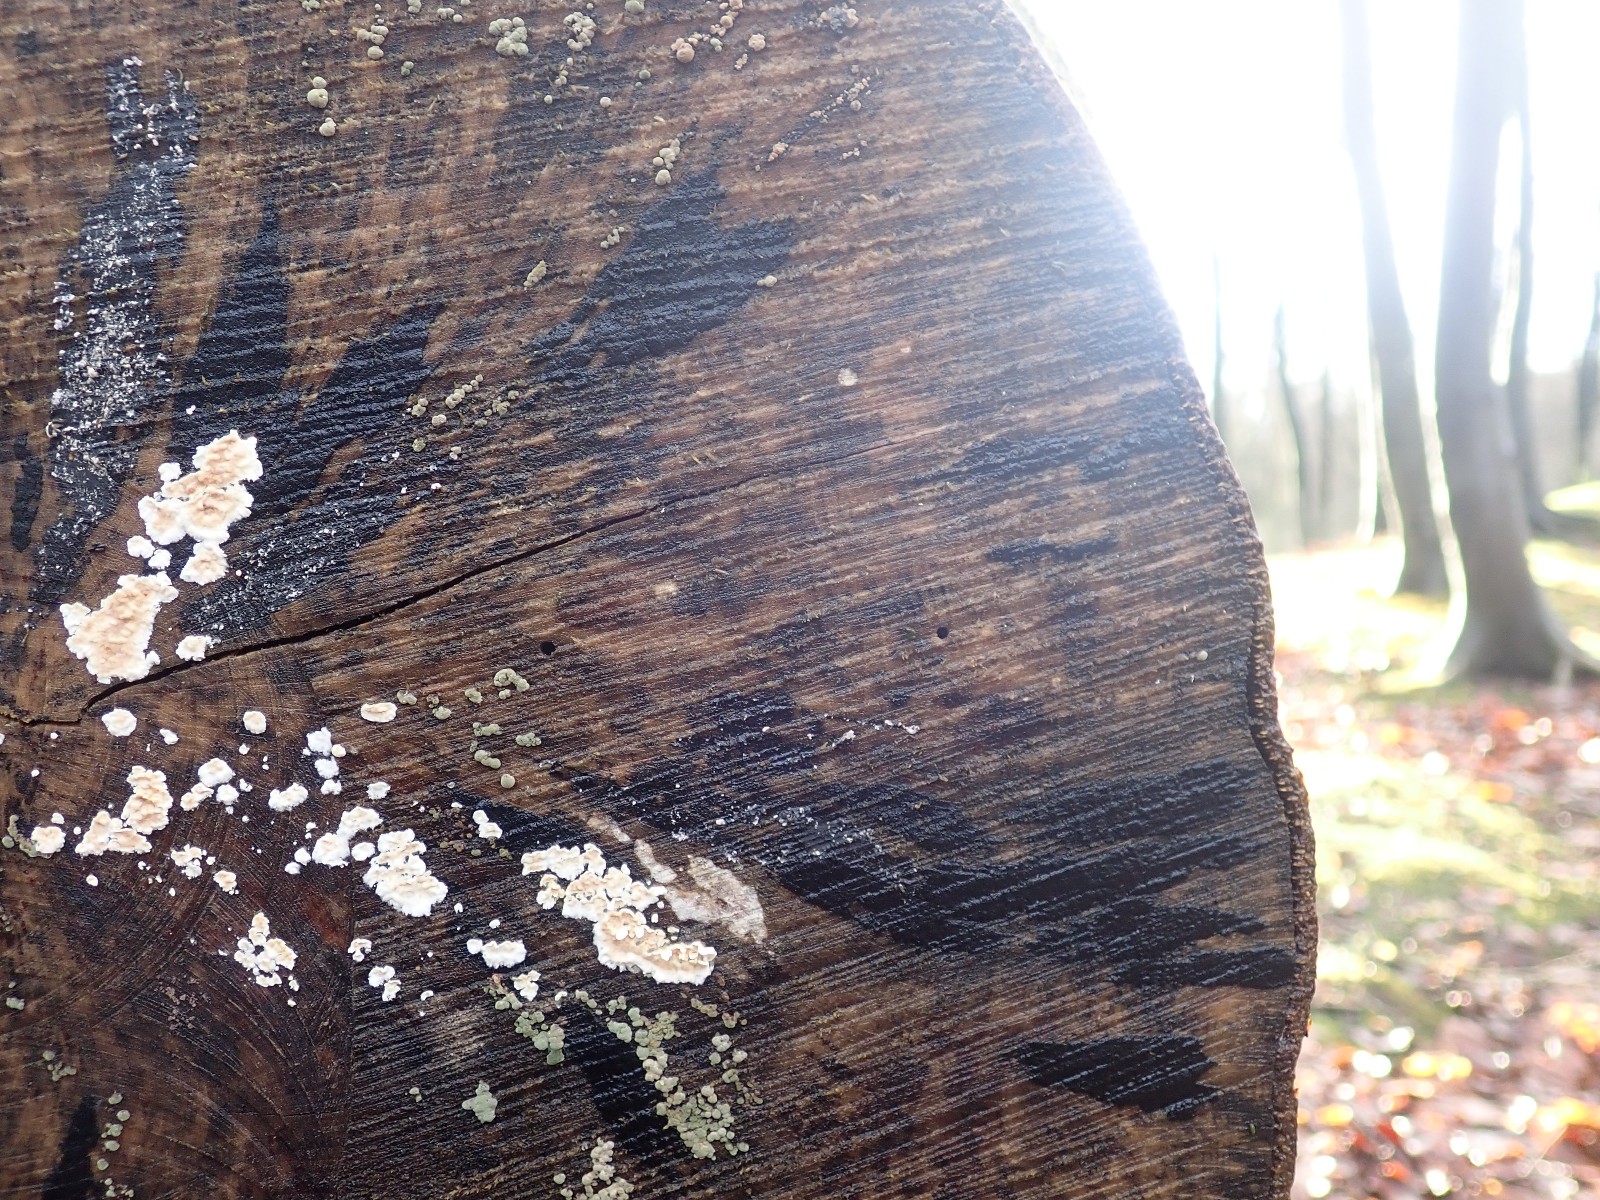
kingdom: Fungi
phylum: Ascomycota
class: Leotiomycetes
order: Helotiales
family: Helotiaceae
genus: Bispora
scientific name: Bispora pallescens
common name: måtte-snitskive
